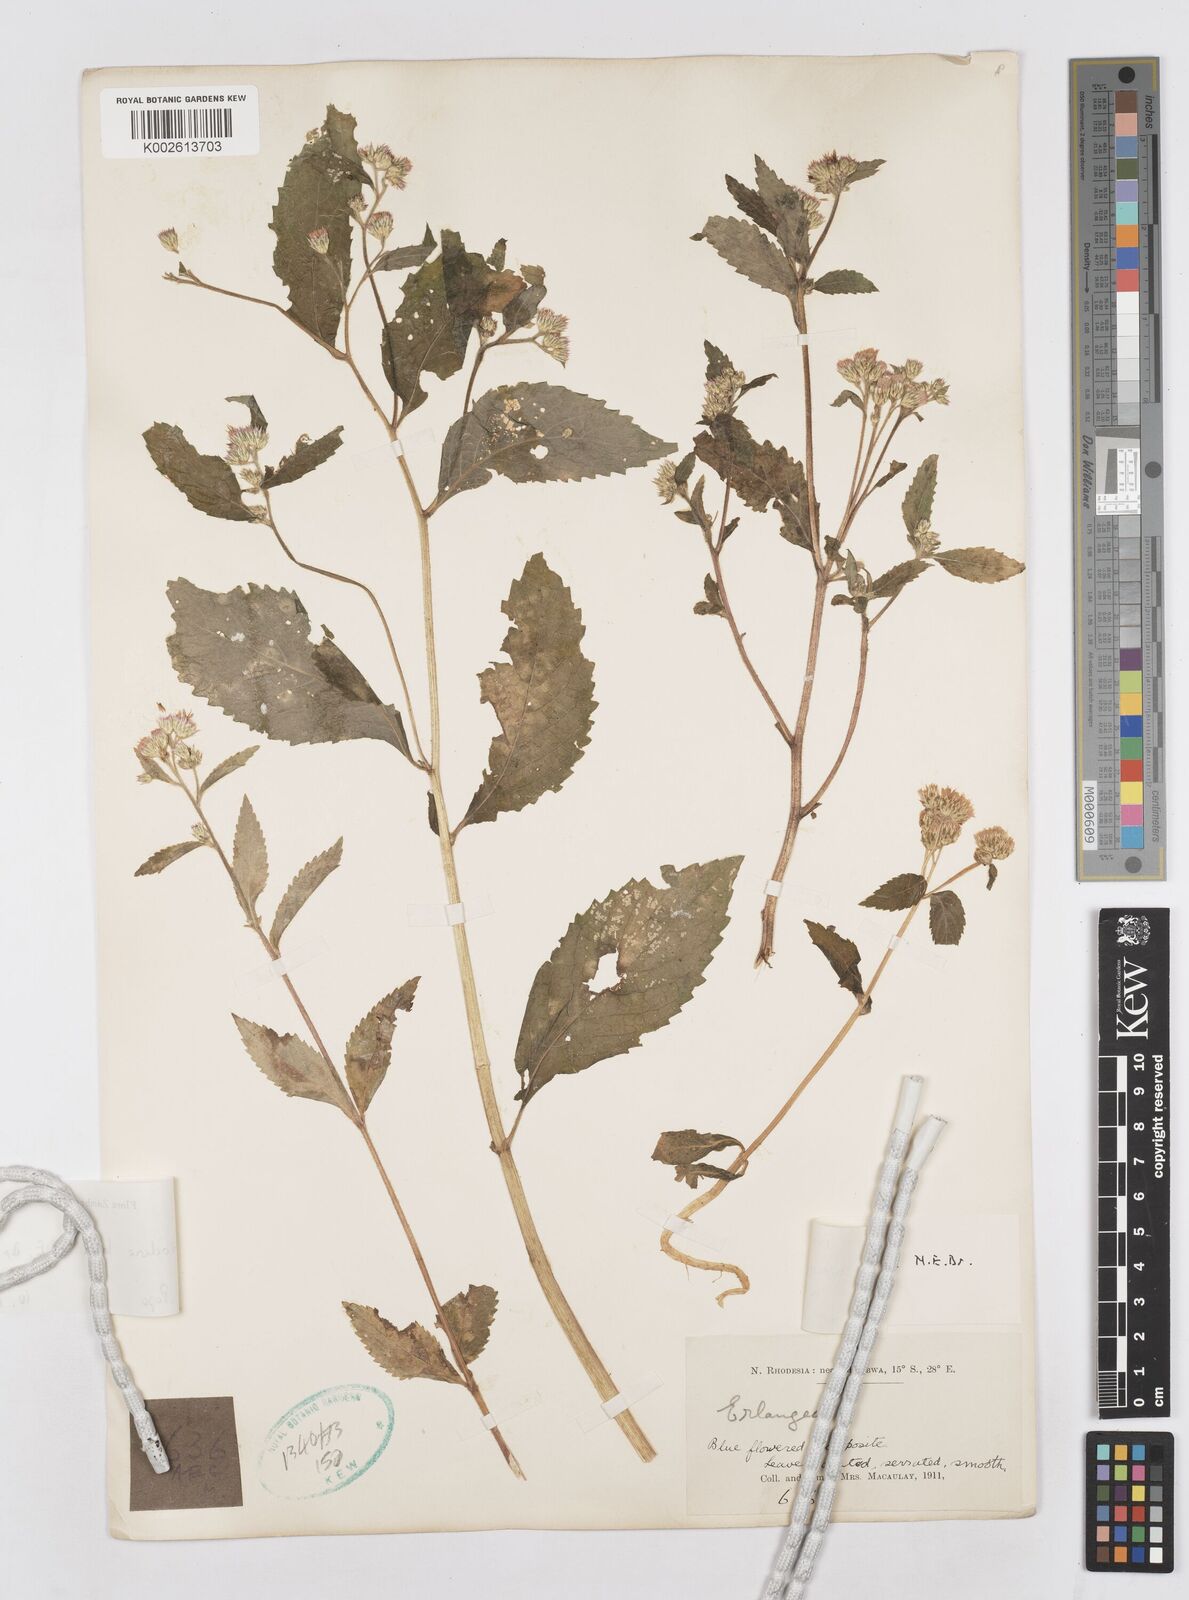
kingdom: Plantae
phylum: Tracheophyta
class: Magnoliopsida
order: Asterales
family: Asteraceae
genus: Bothriocline
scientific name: Bothriocline laxa
